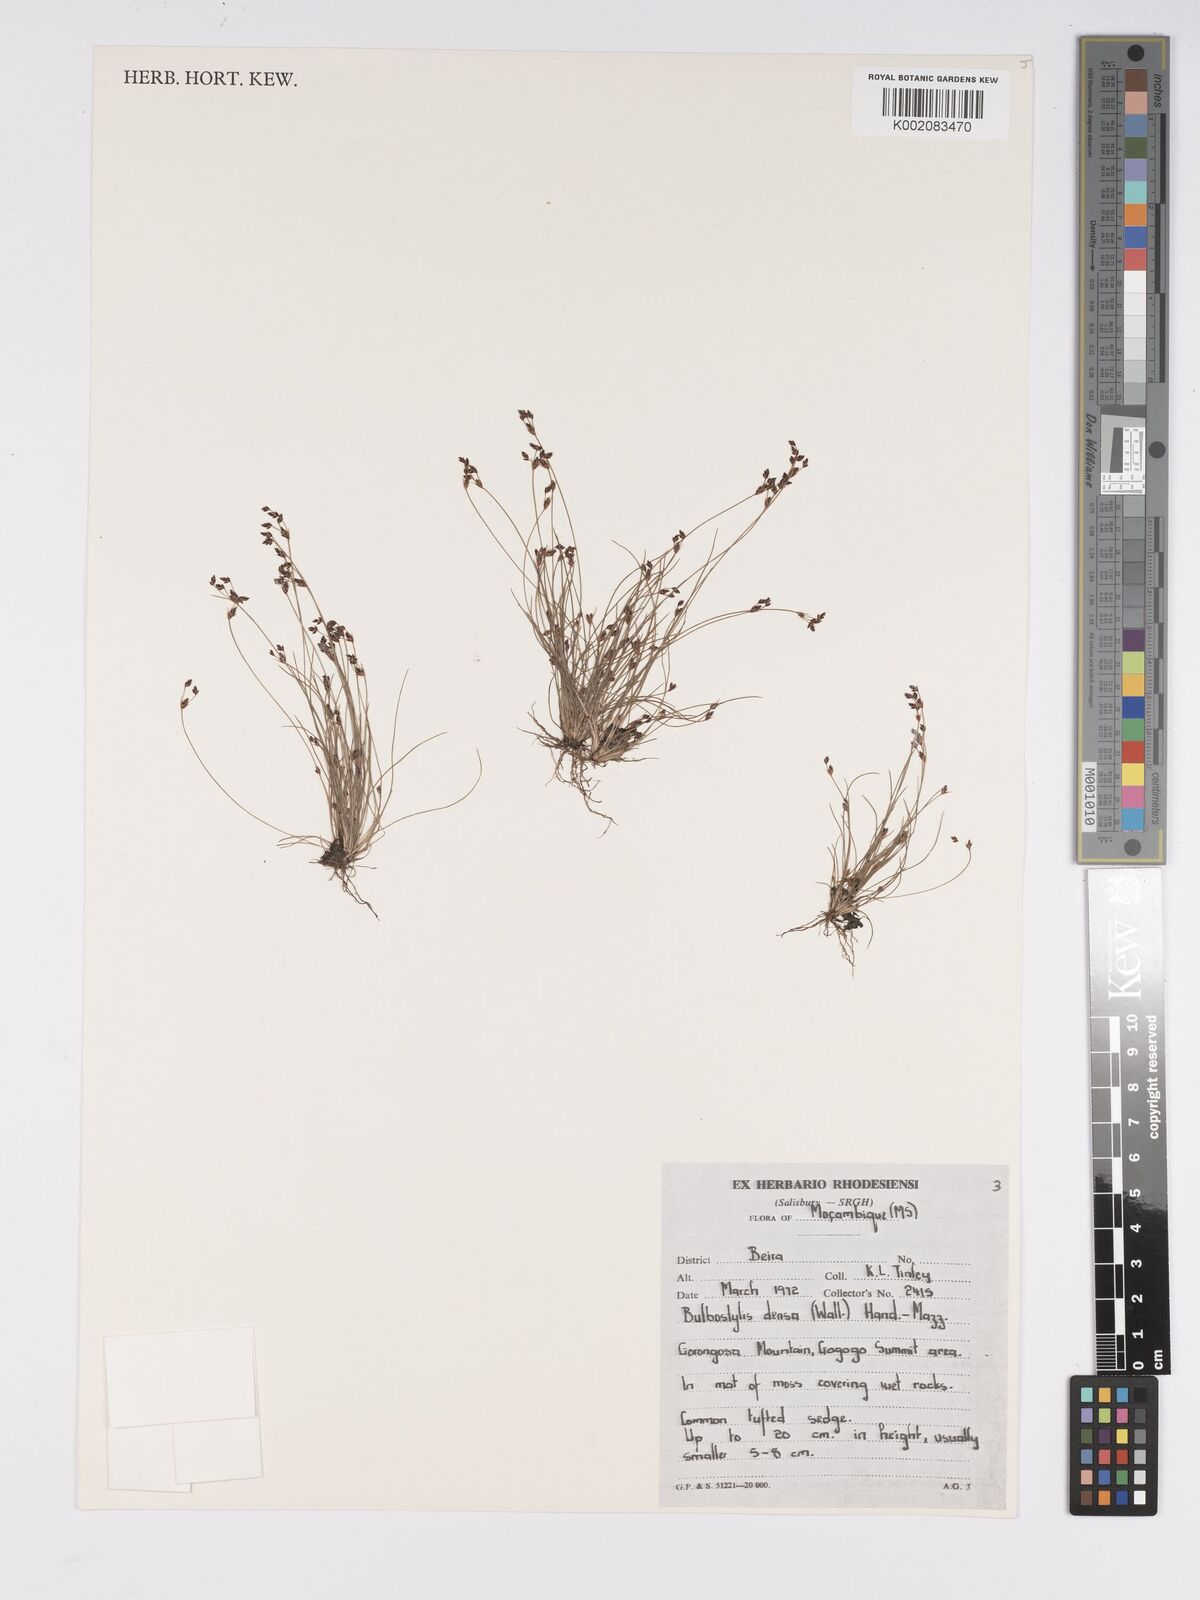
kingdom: Plantae
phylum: Tracheophyta
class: Liliopsida
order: Poales
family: Cyperaceae
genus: Bulbostylis
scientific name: Bulbostylis densa
